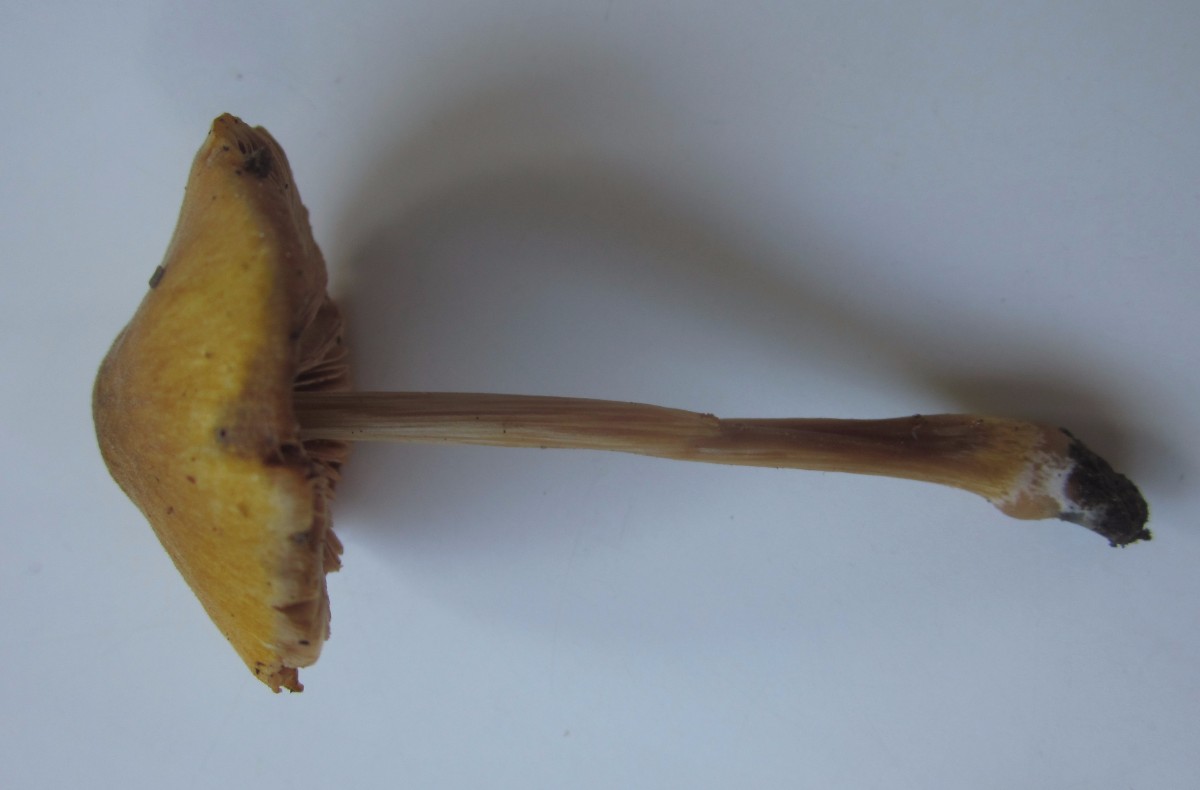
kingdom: Fungi
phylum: Basidiomycota
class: Agaricomycetes
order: Agaricales
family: Pluteaceae
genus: Pluteus
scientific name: Pluteus leoninus
